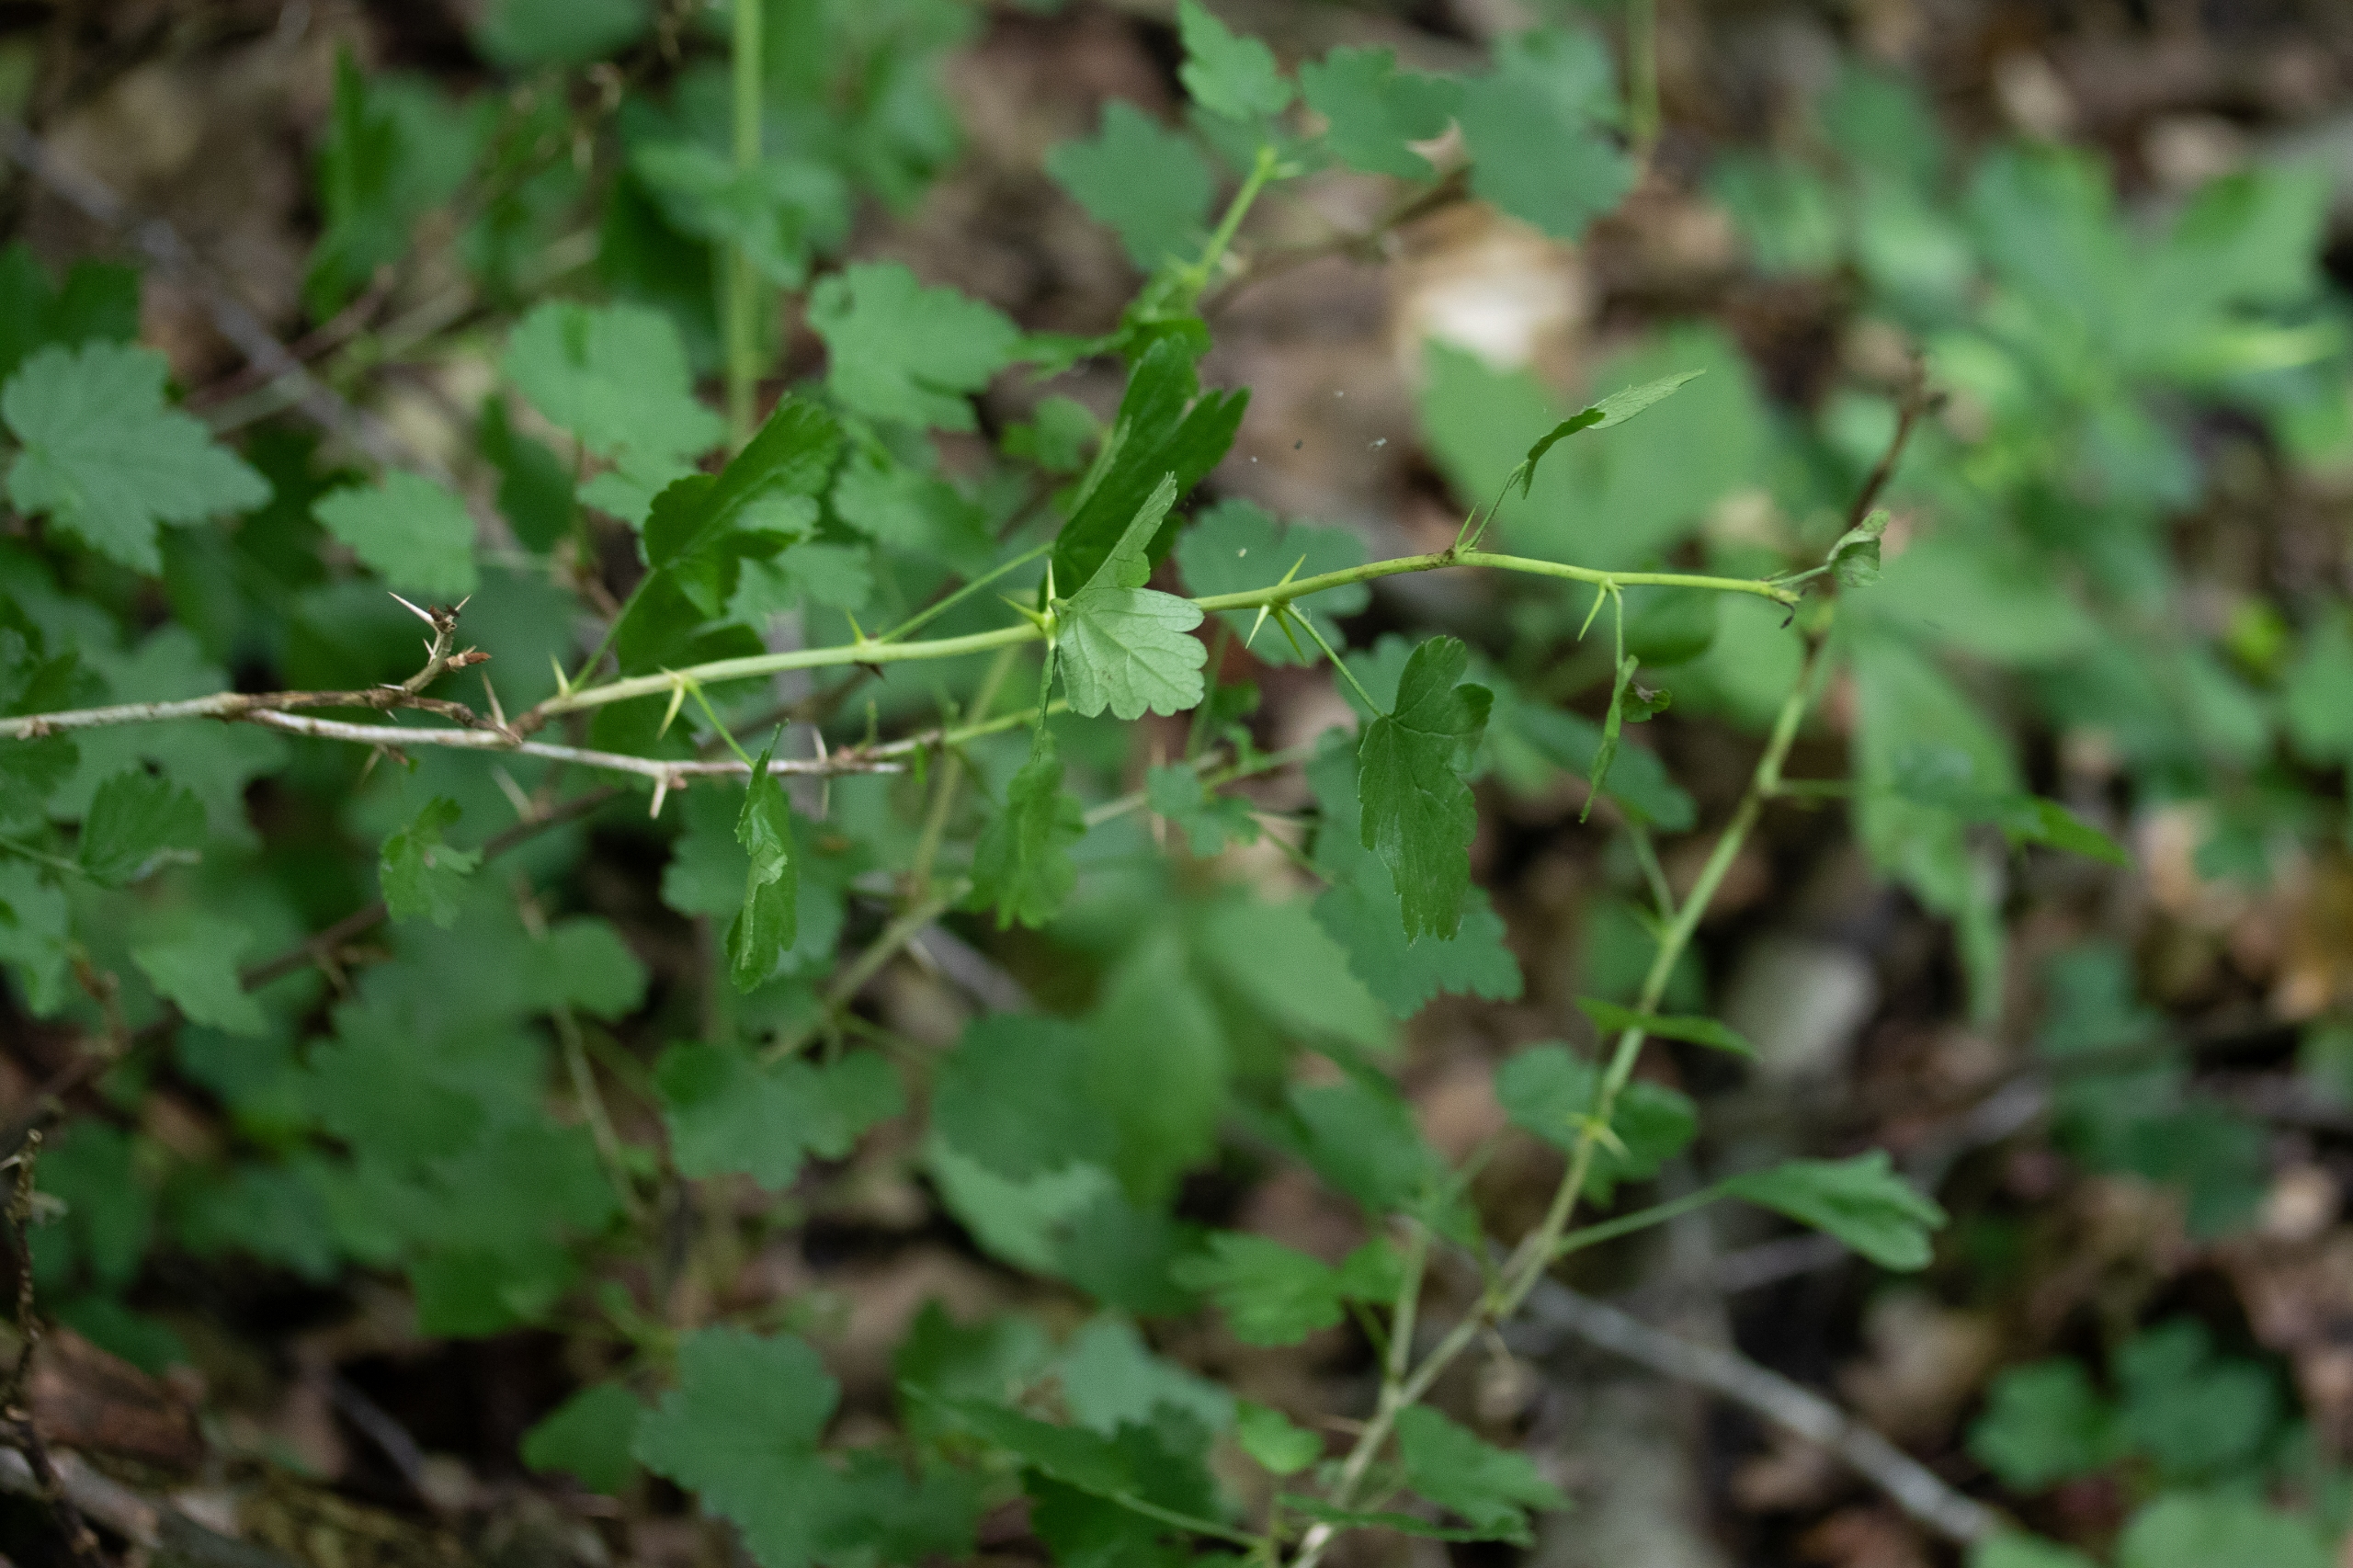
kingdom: Plantae
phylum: Tracheophyta
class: Magnoliopsida
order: Saxifragales
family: Grossulariaceae
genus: Ribes
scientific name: Ribes uva-crispa
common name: Stikkelsbær
